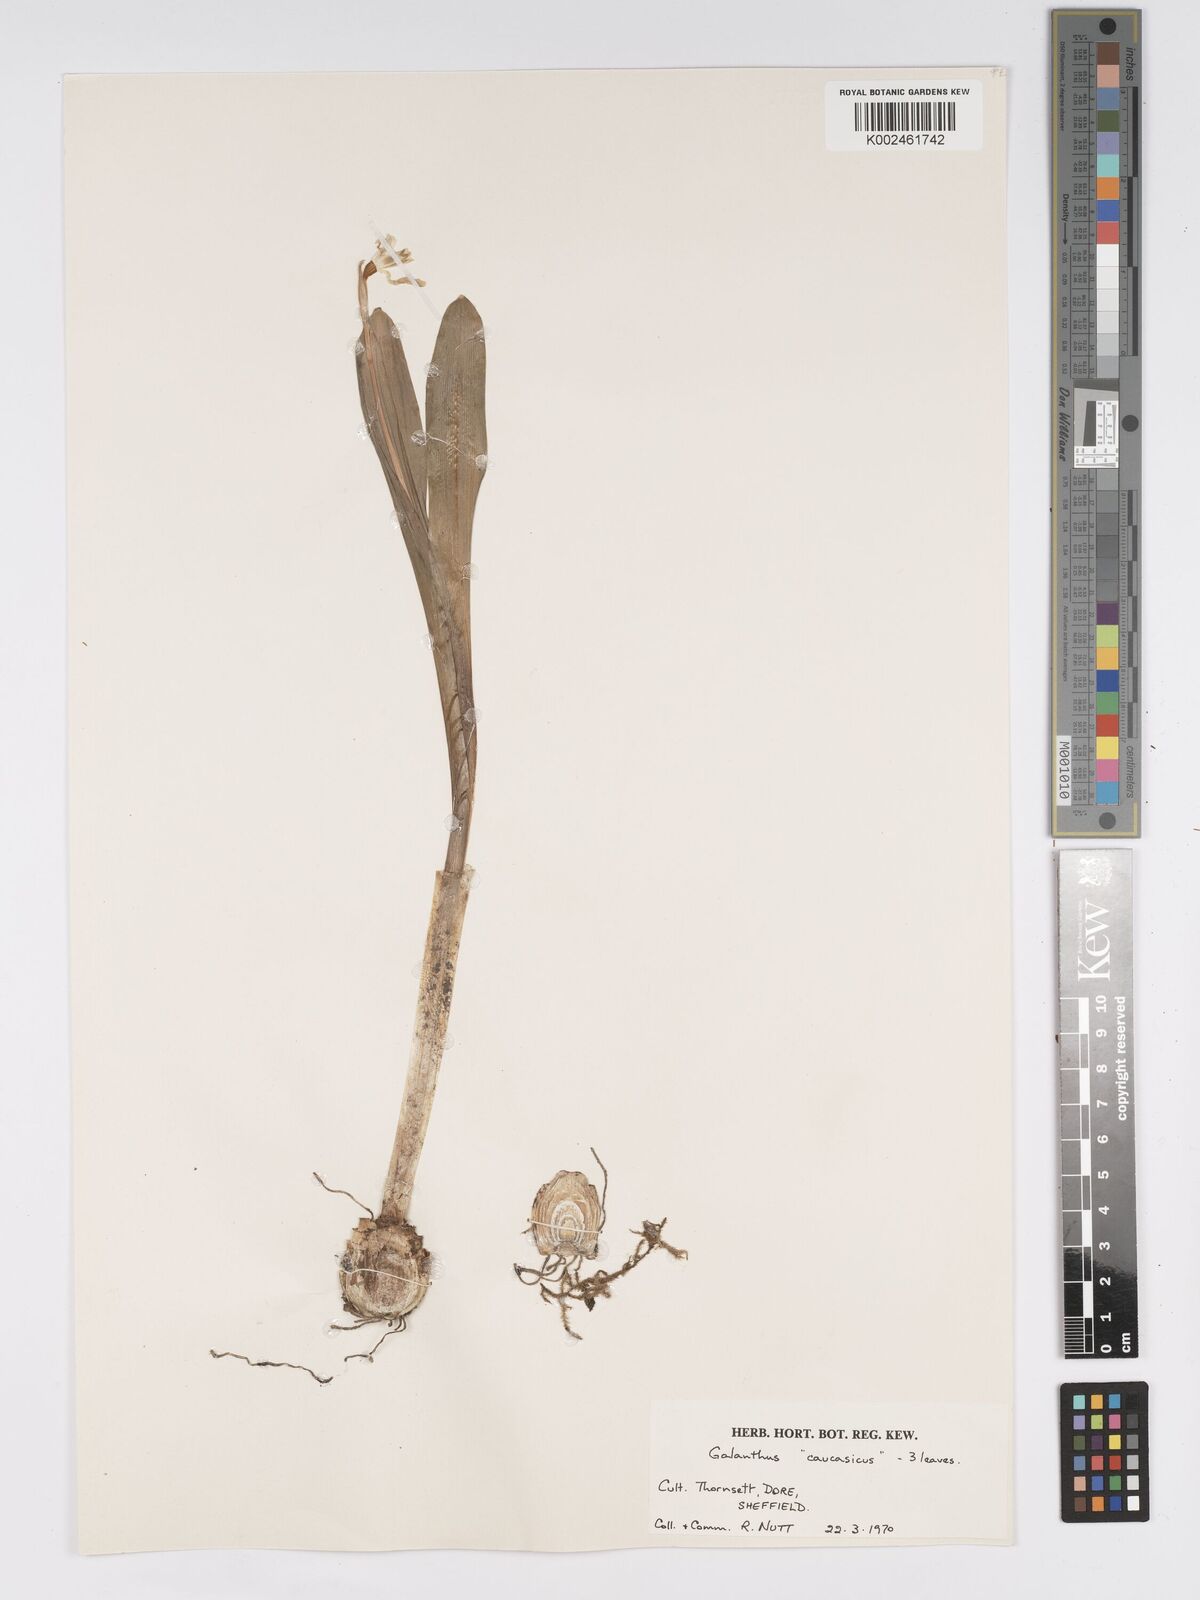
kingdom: Plantae
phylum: Tracheophyta
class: Liliopsida
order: Asparagales
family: Amaryllidaceae
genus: Galanthus
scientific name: Galanthus alpinus
